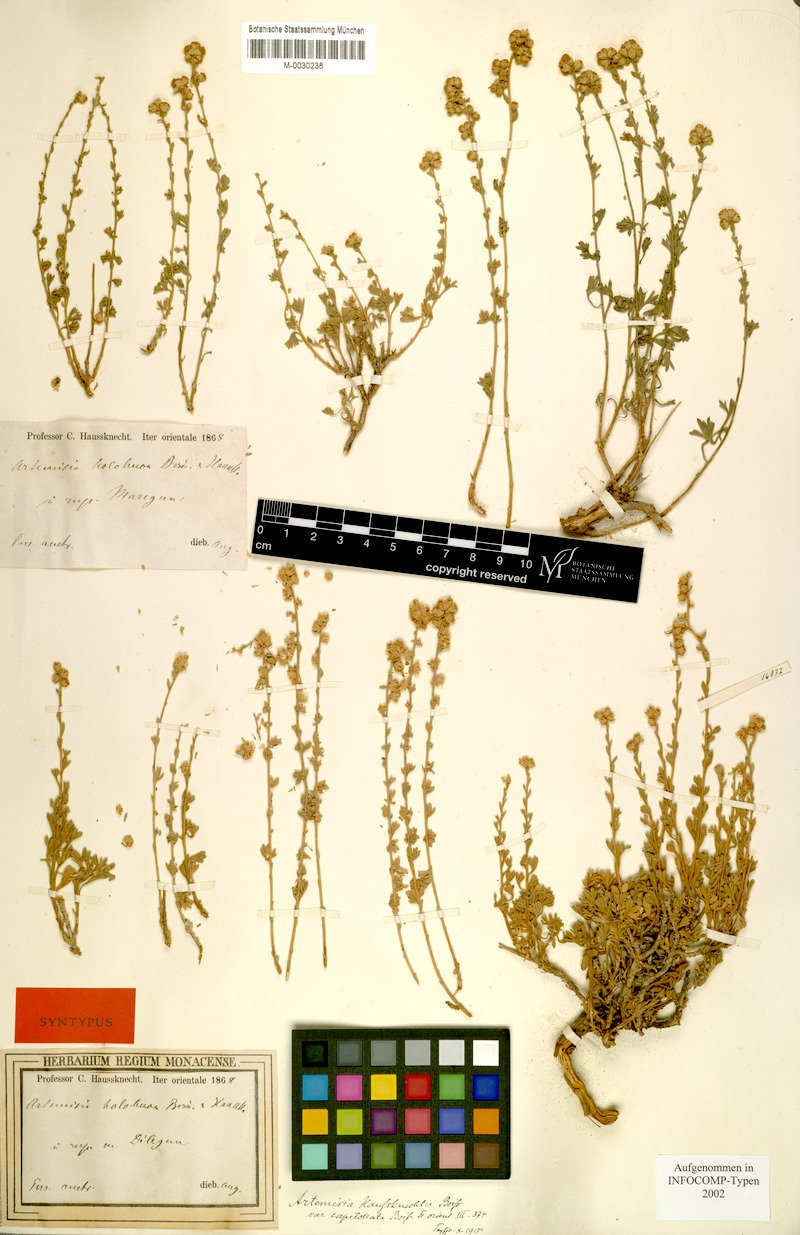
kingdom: Plantae
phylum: Tracheophyta
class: Magnoliopsida
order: Asterales
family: Asteraceae
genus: Artemisia
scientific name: Artemisia haussknechtii
